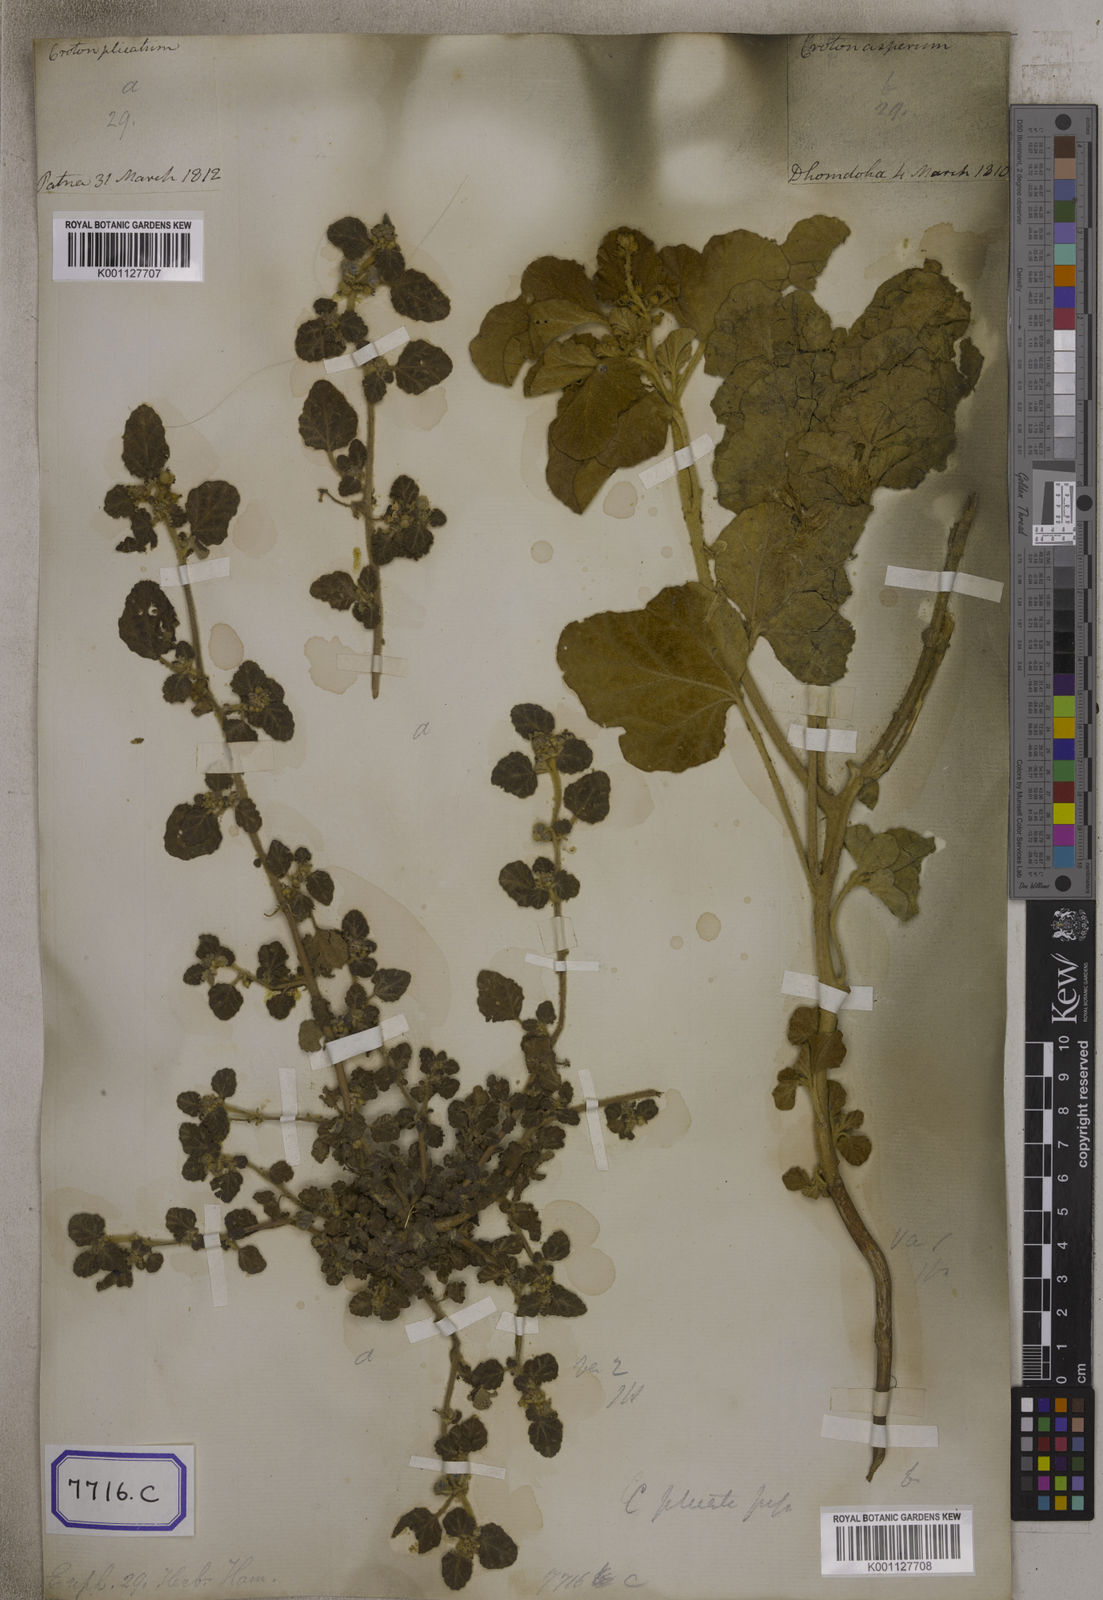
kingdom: Plantae
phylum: Tracheophyta
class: Magnoliopsida
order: Malpighiales
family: Euphorbiaceae
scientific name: Euphorbiaceae
